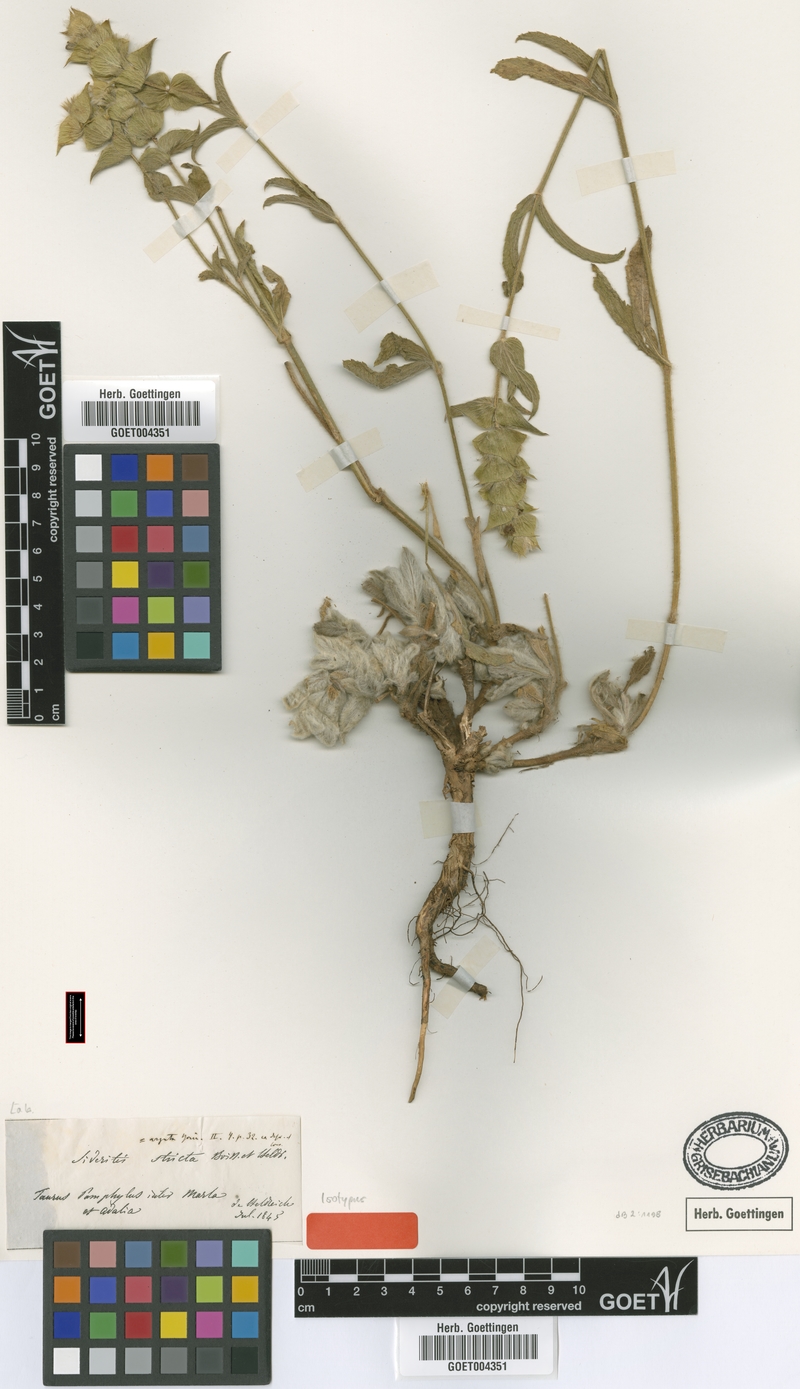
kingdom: Plantae
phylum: Tracheophyta
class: Magnoliopsida
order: Lamiales
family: Lamiaceae
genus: Sideritis
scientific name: Sideritis stricta
